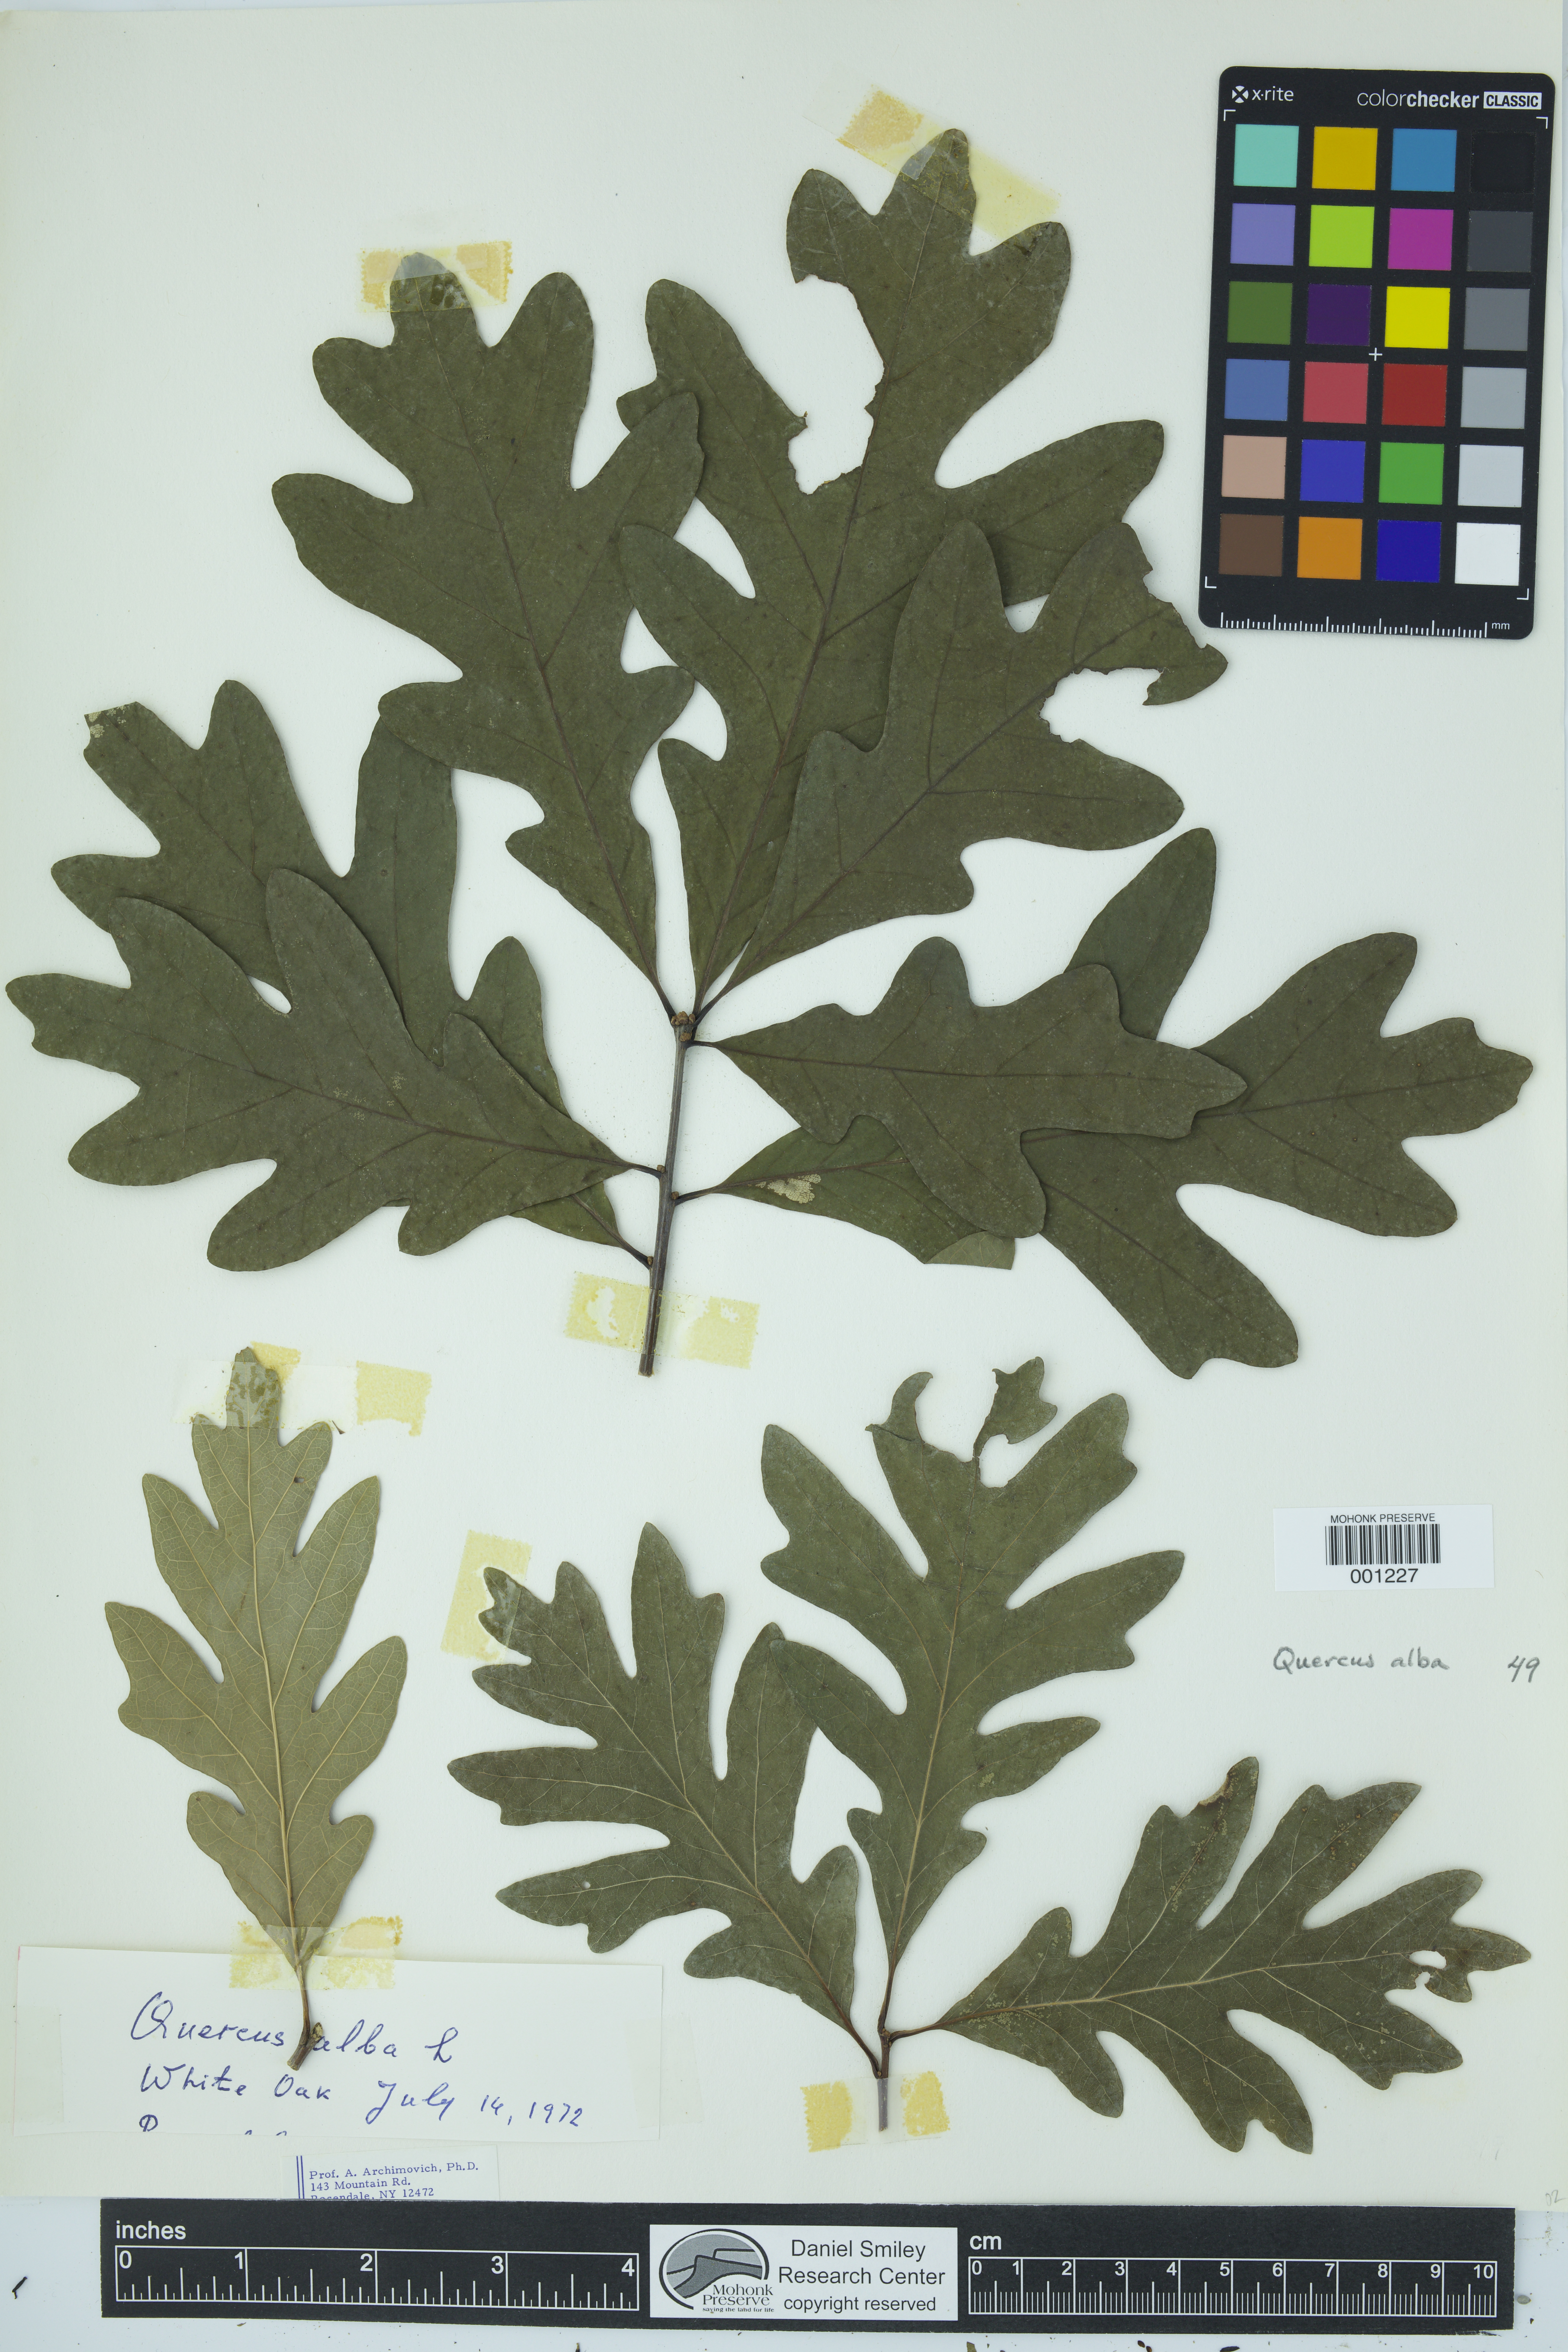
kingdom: Plantae
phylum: Tracheophyta
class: Magnoliopsida
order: Fagales
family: Fagaceae
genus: Quercus
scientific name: Quercus alba
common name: White oak
